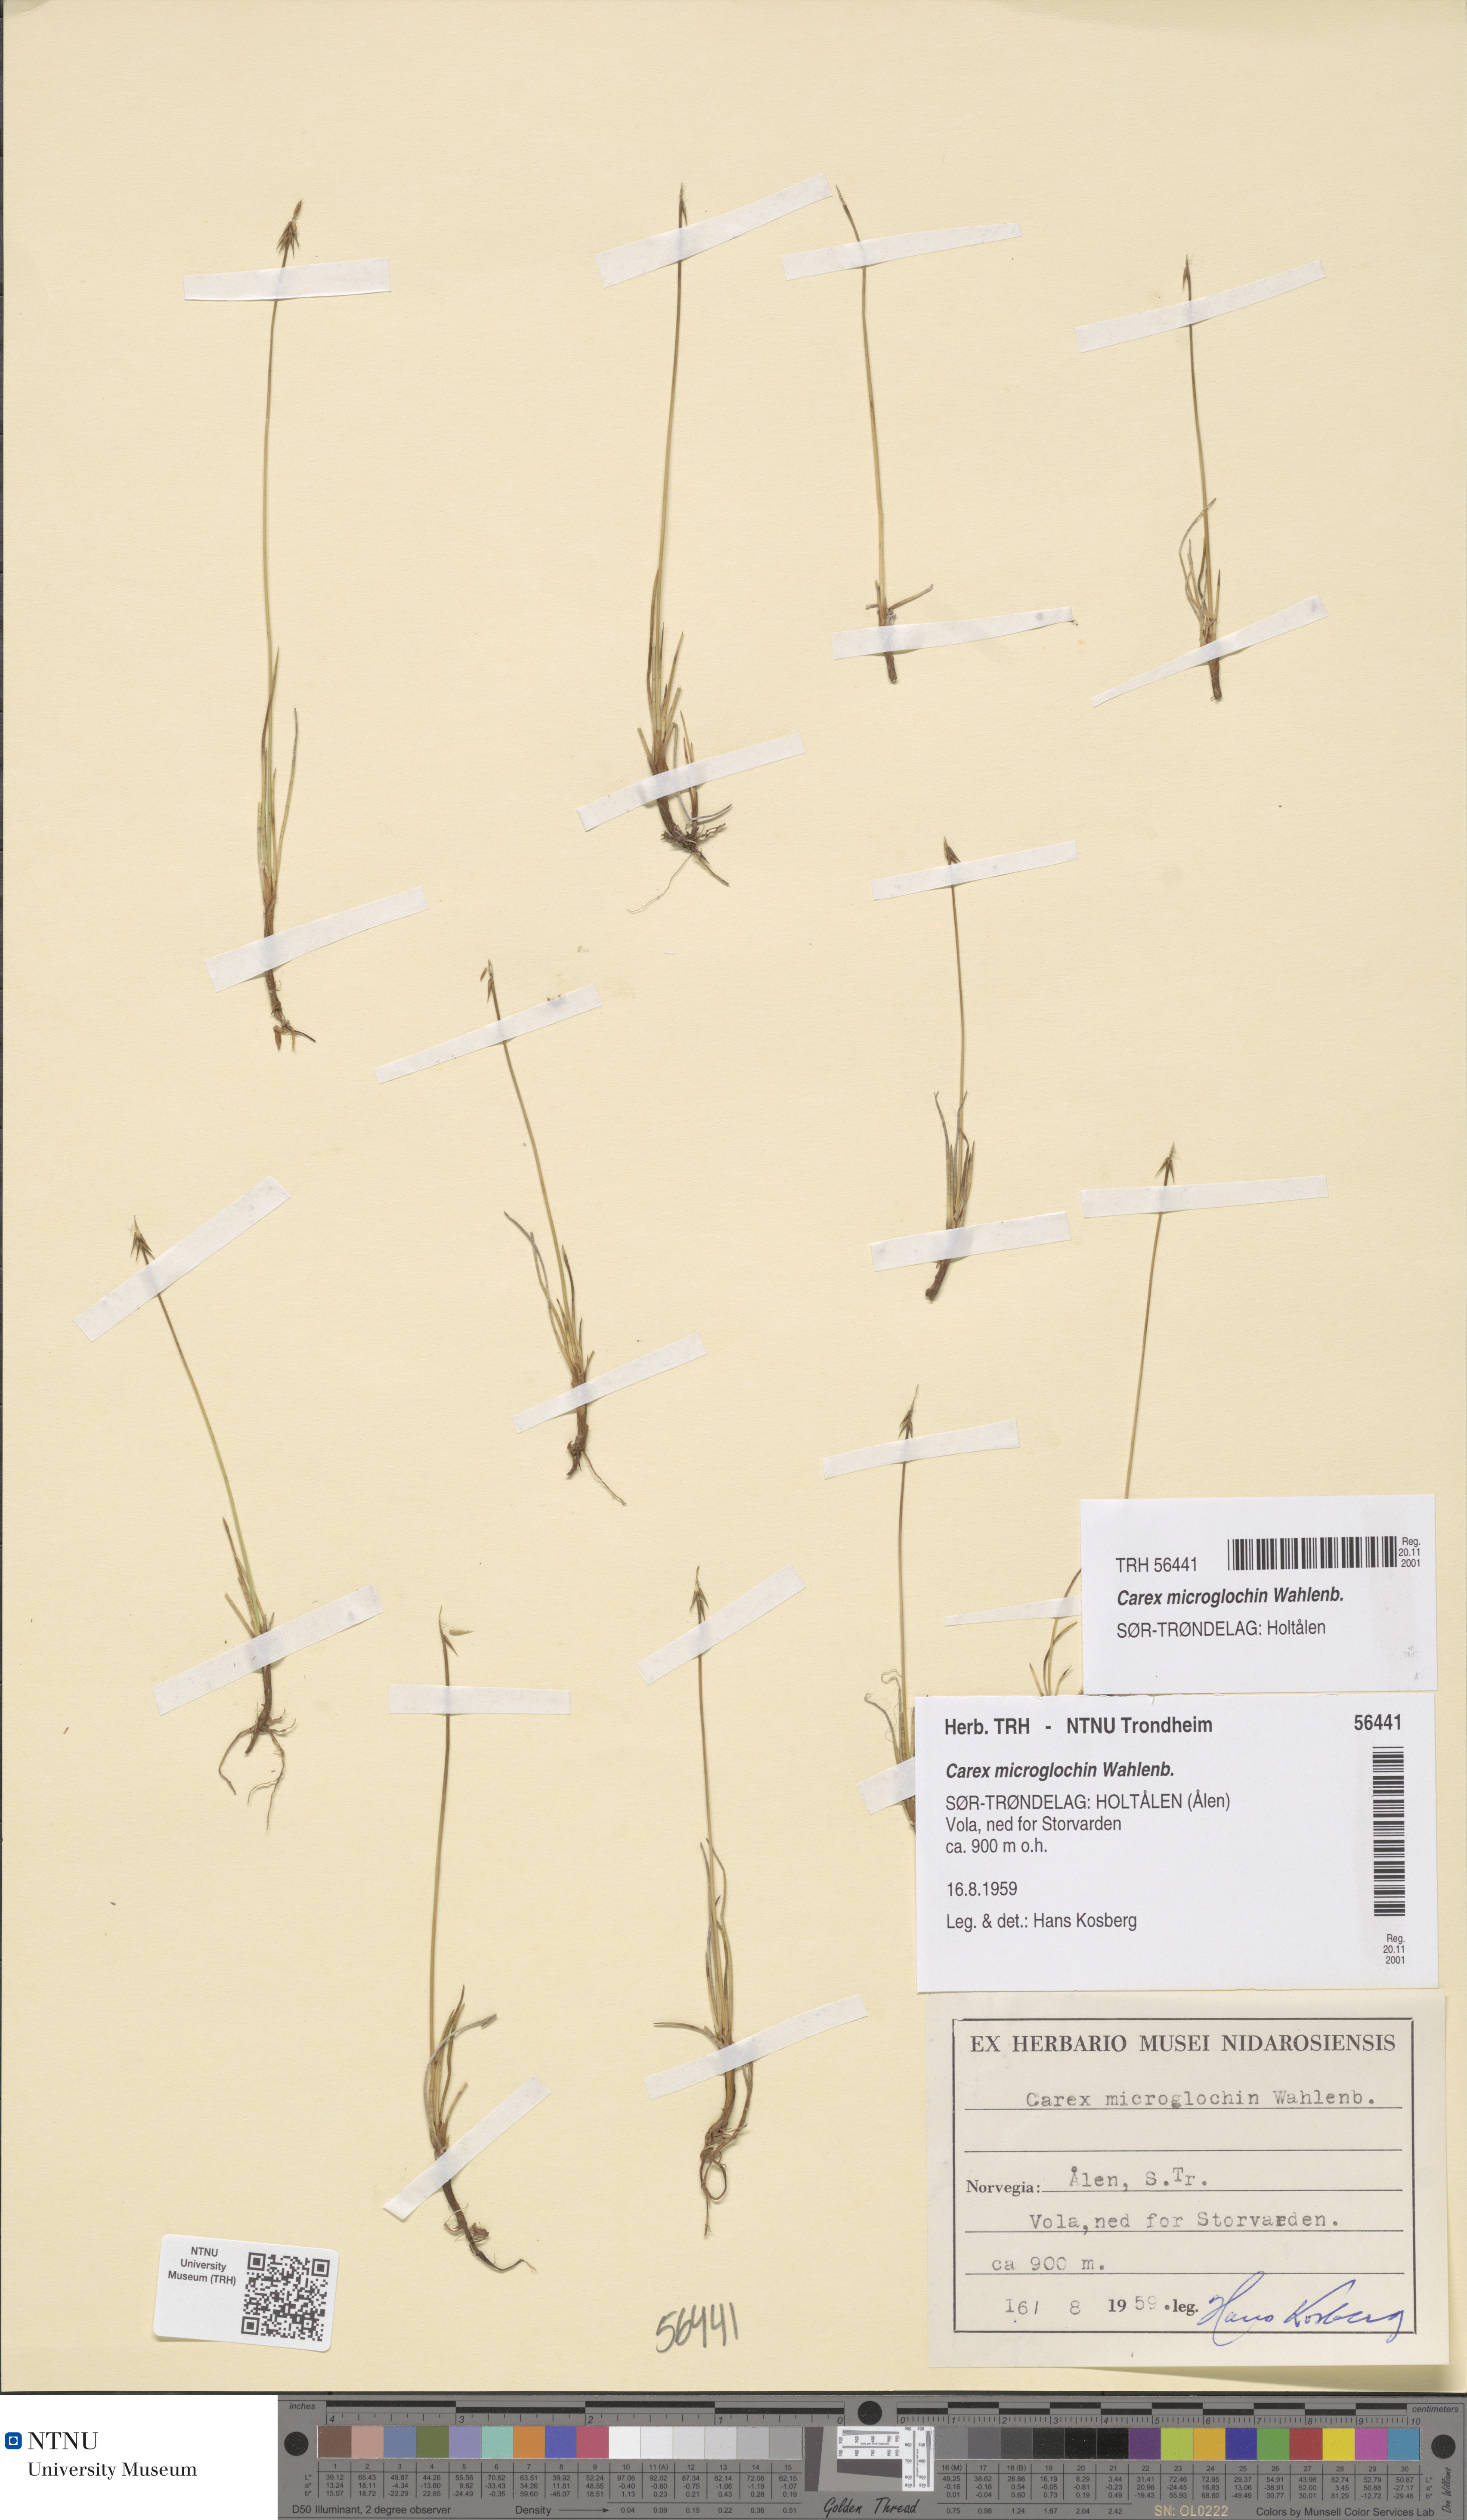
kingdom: Plantae
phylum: Tracheophyta
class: Liliopsida
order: Poales
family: Cyperaceae
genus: Carex
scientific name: Carex microglochin
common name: Bristle sedge
